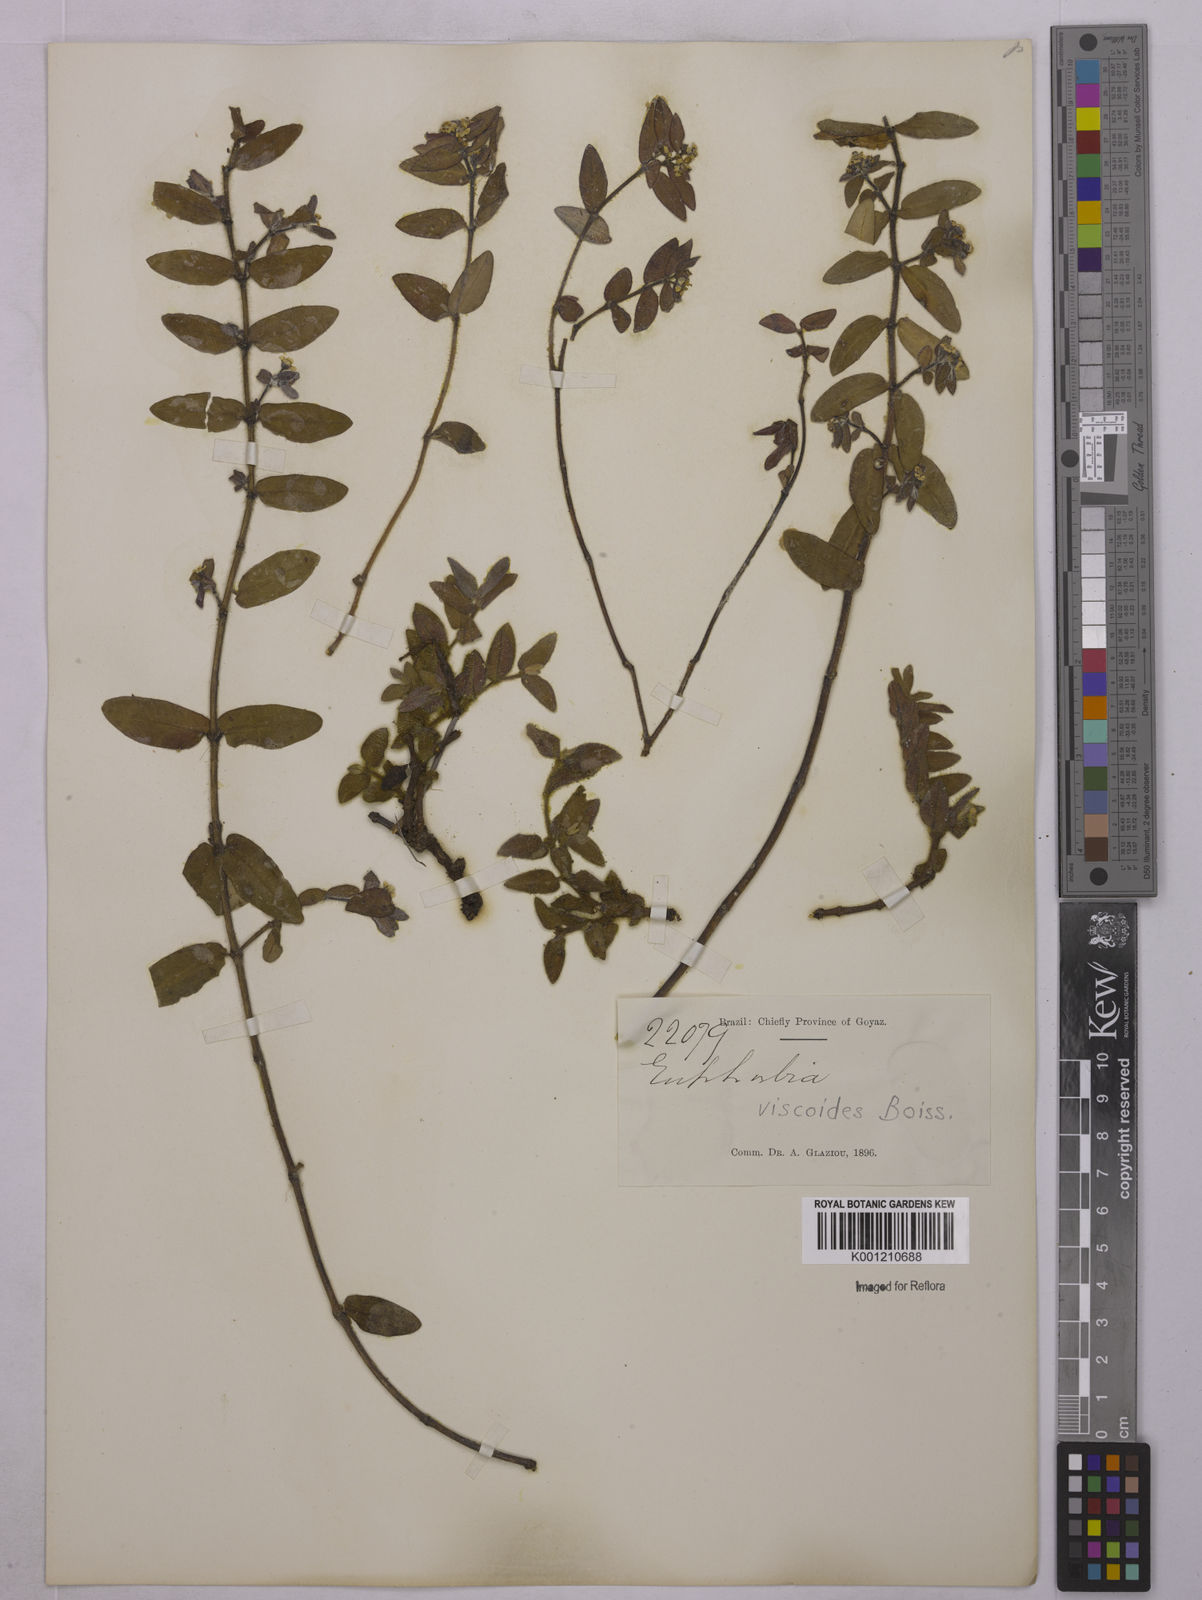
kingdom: Plantae
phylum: Tracheophyta
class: Magnoliopsida
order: Malpighiales
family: Euphorbiaceae
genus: Euphorbia
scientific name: Euphorbia viscoides
